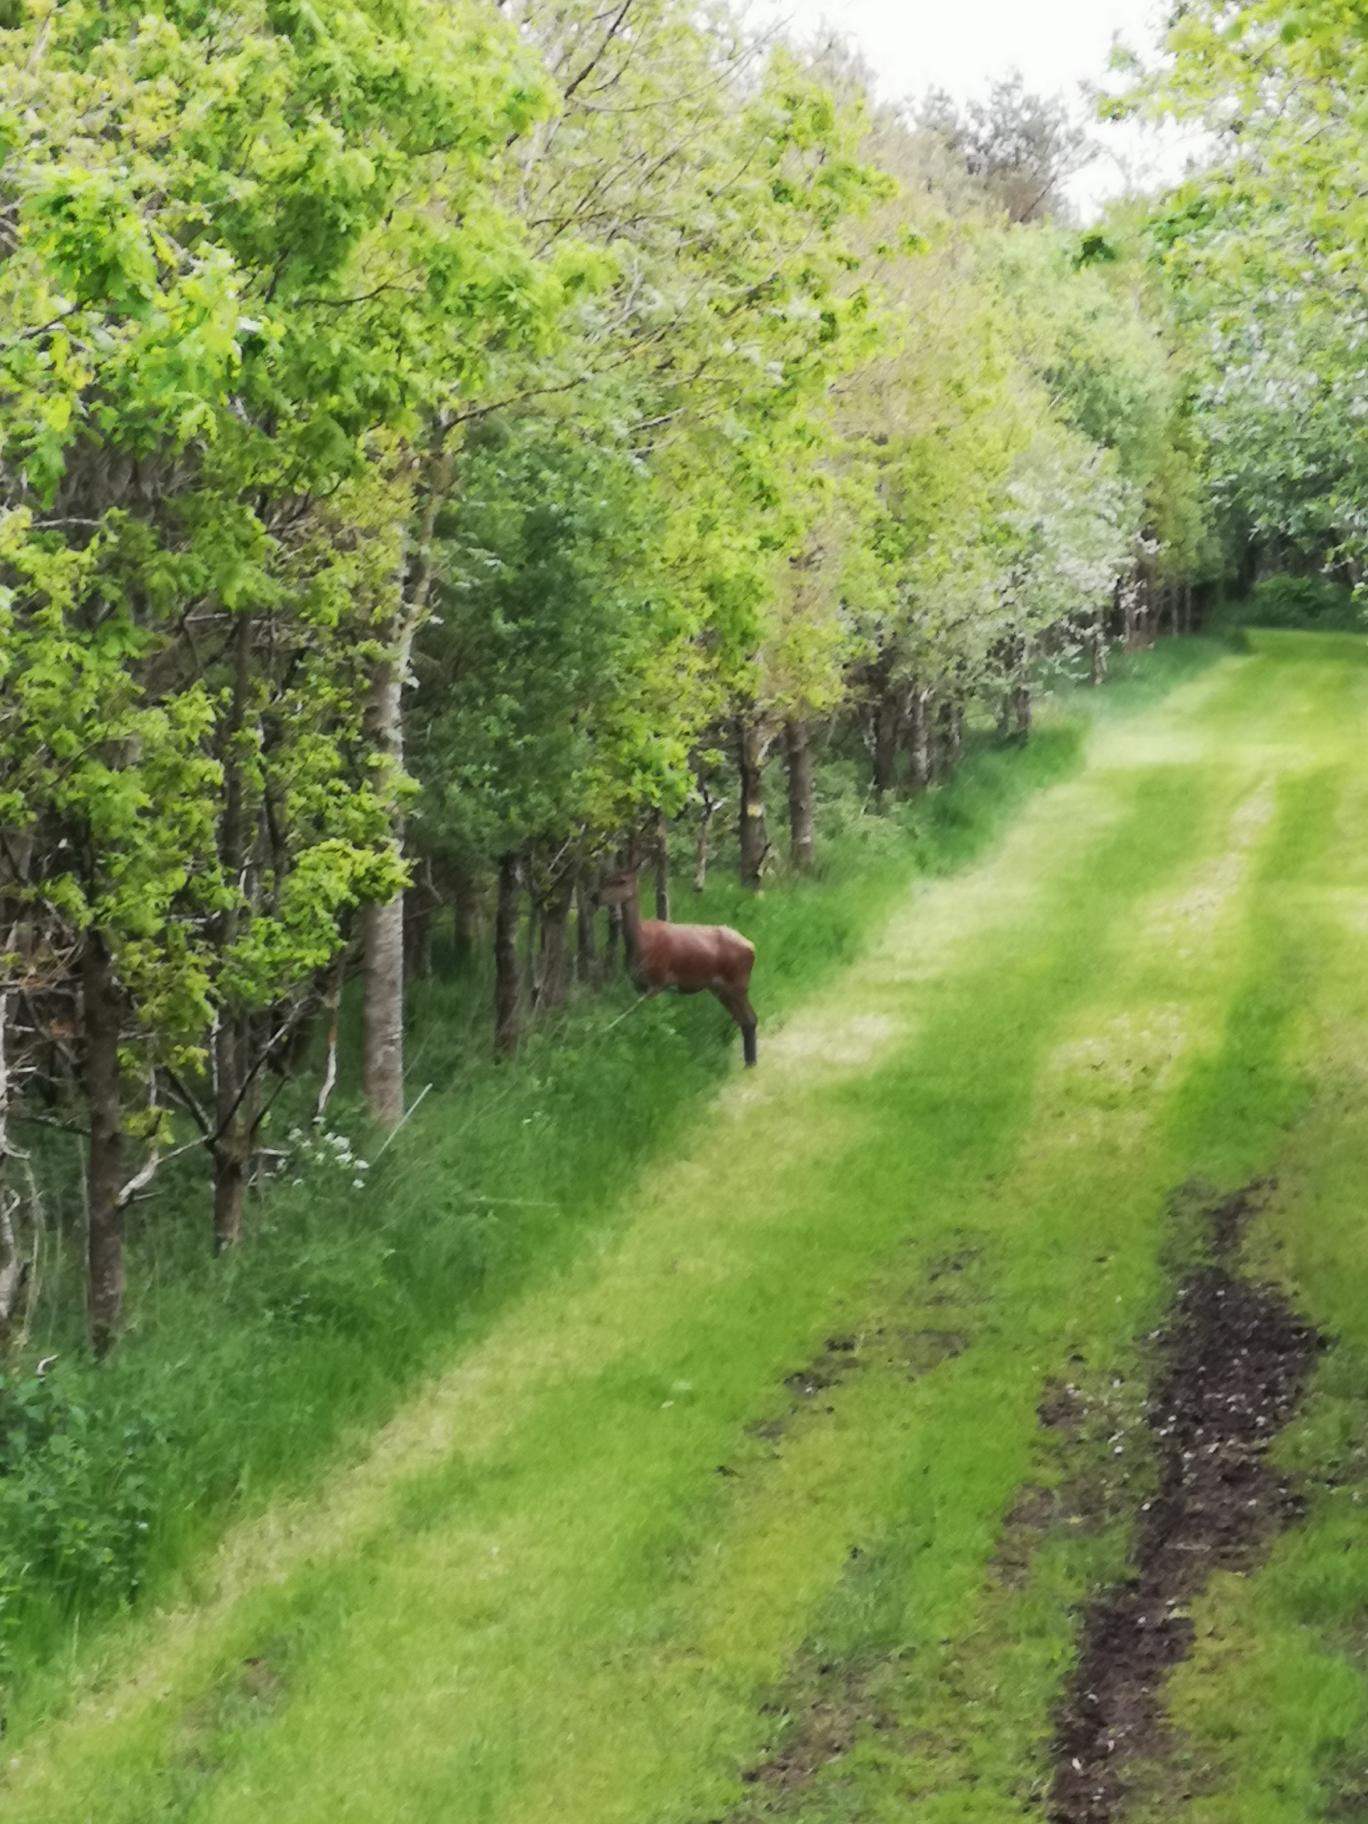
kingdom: Animalia
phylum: Chordata
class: Mammalia
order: Artiodactyla
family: Cervidae
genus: Cervus
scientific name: Cervus elaphus
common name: Krondyr
